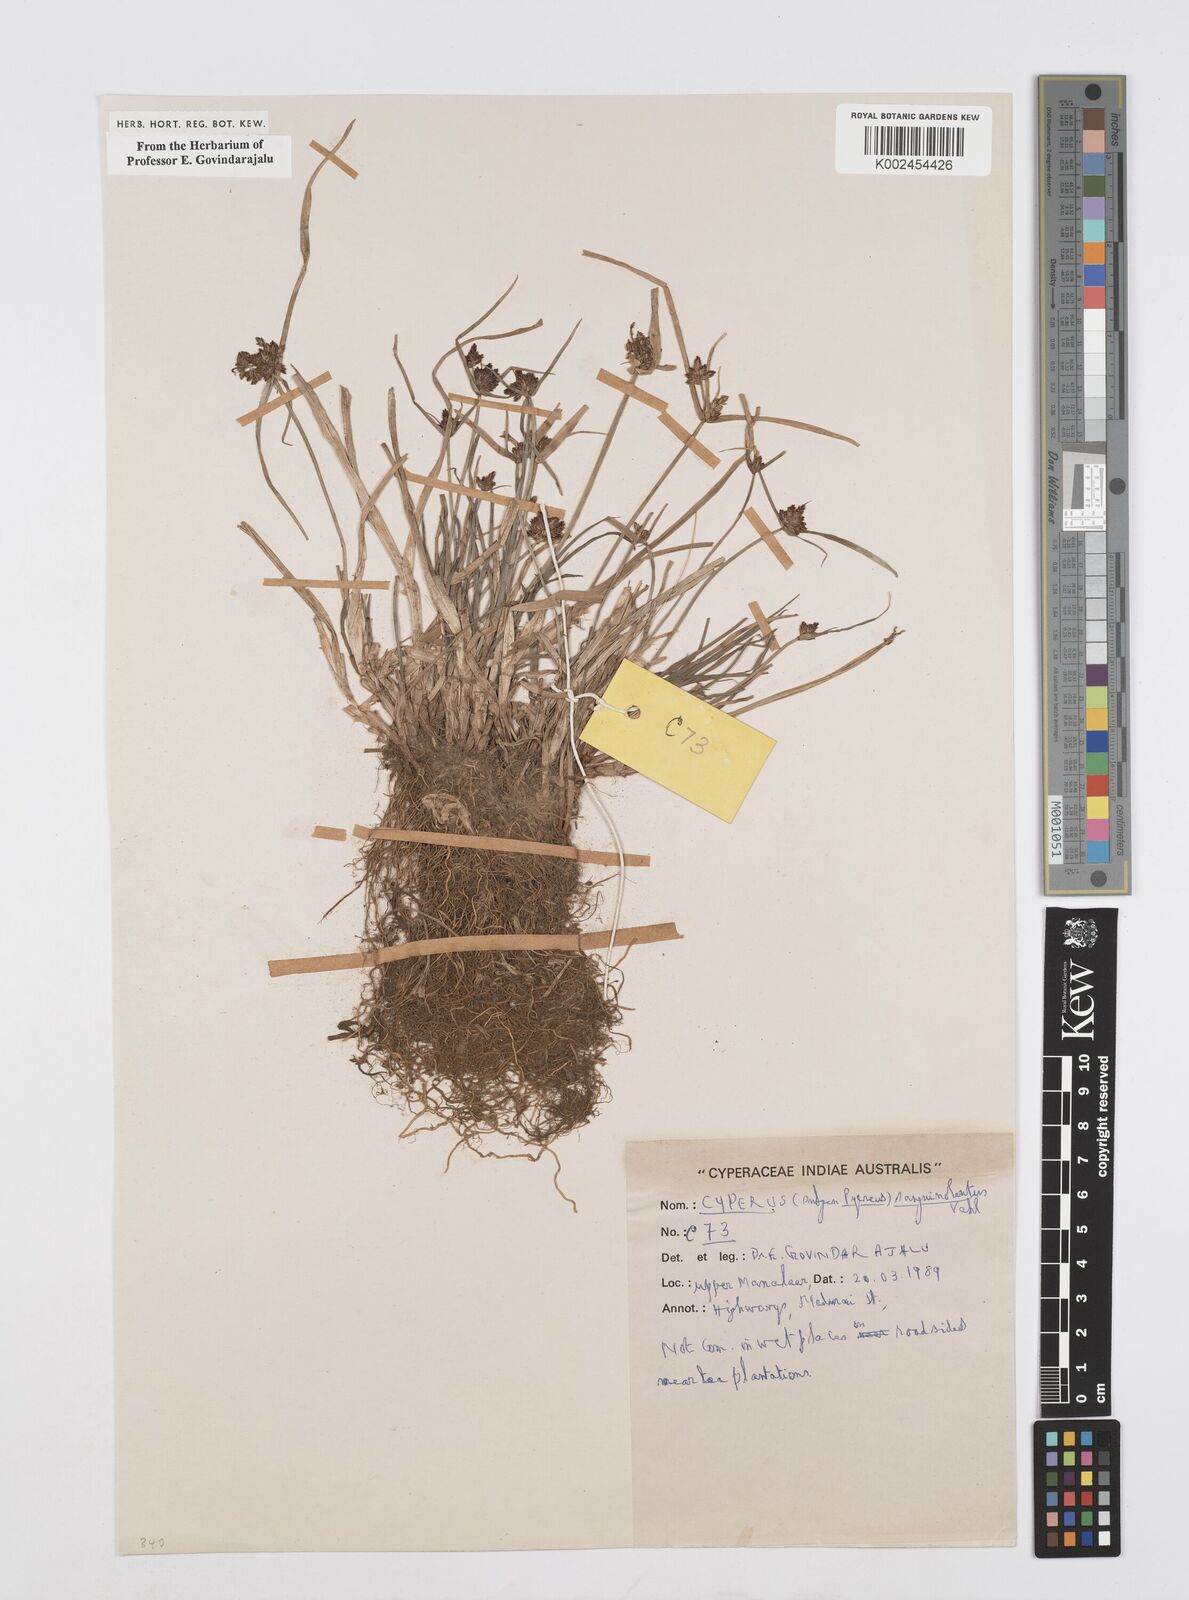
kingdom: Plantae
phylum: Tracheophyta
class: Liliopsida
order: Poales
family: Cyperaceae
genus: Cyperus
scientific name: Cyperus sanguinolentus
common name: Purpleglume flatsedge
